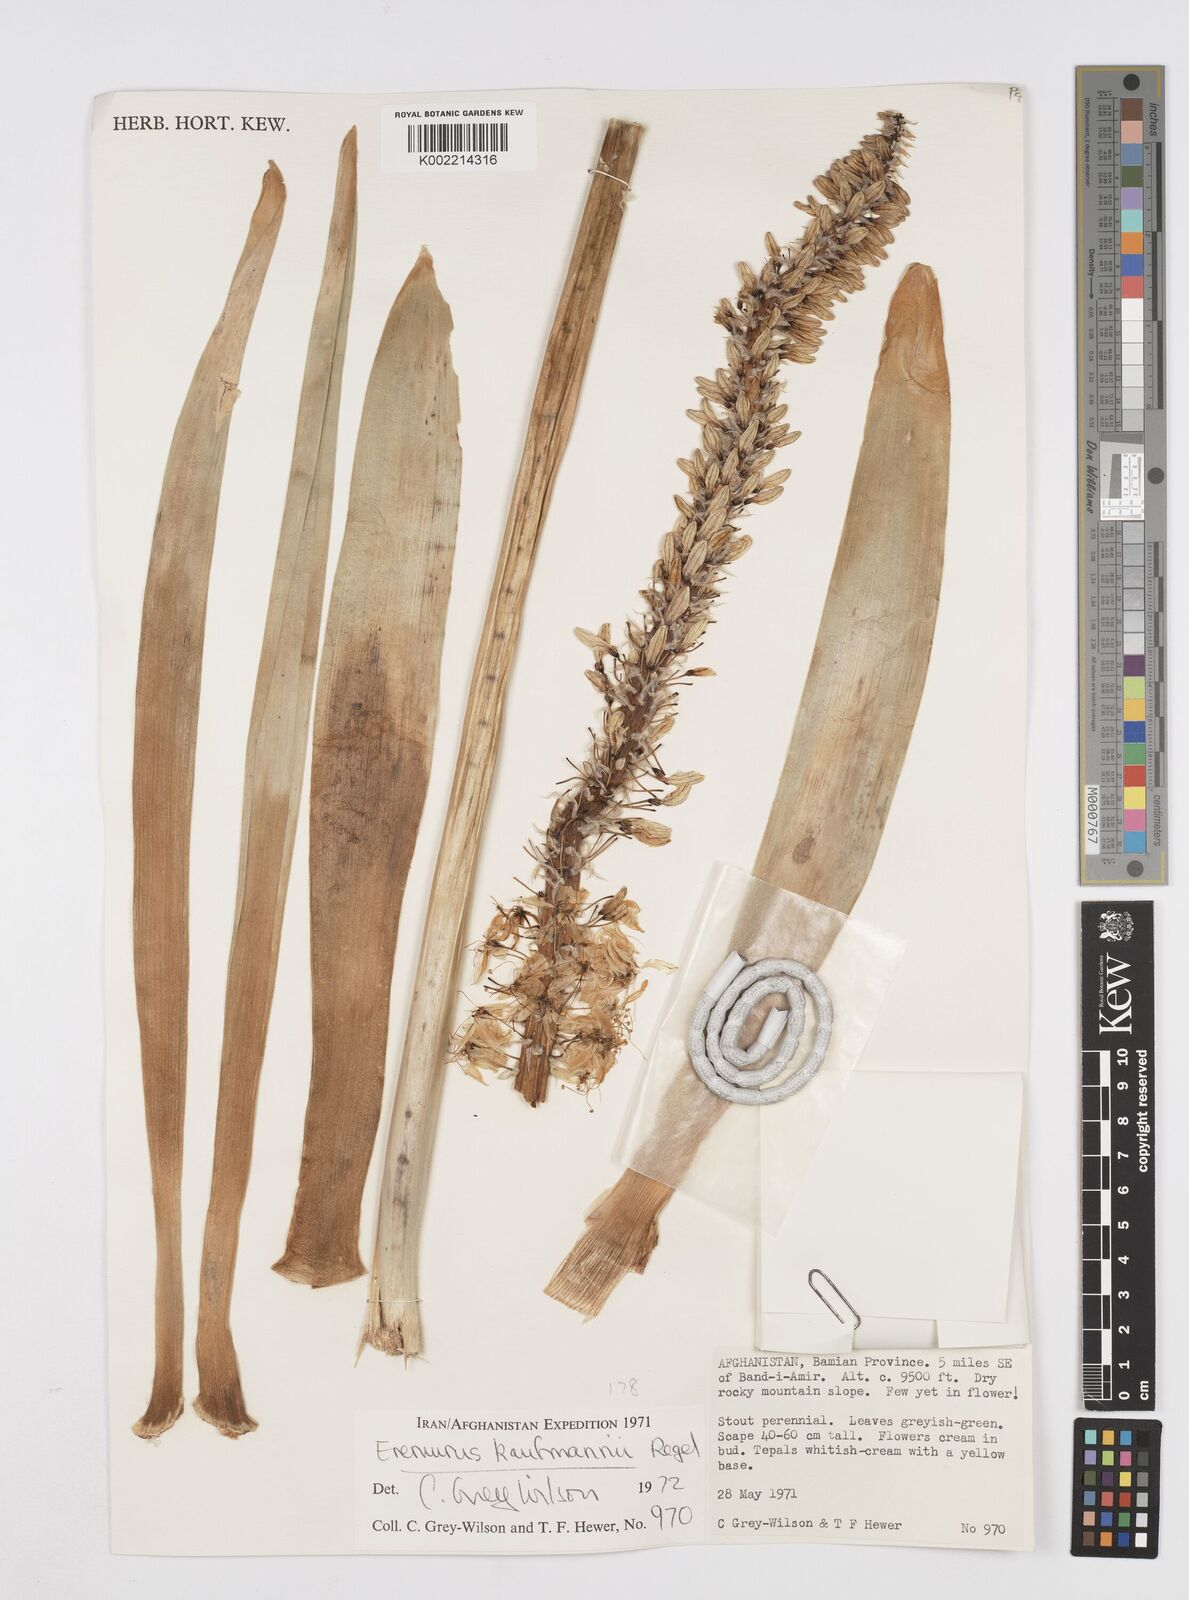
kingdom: Plantae
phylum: Tracheophyta
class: Liliopsida
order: Asparagales
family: Asphodelaceae
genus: Eremurus
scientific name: Eremurus kaufmannii
